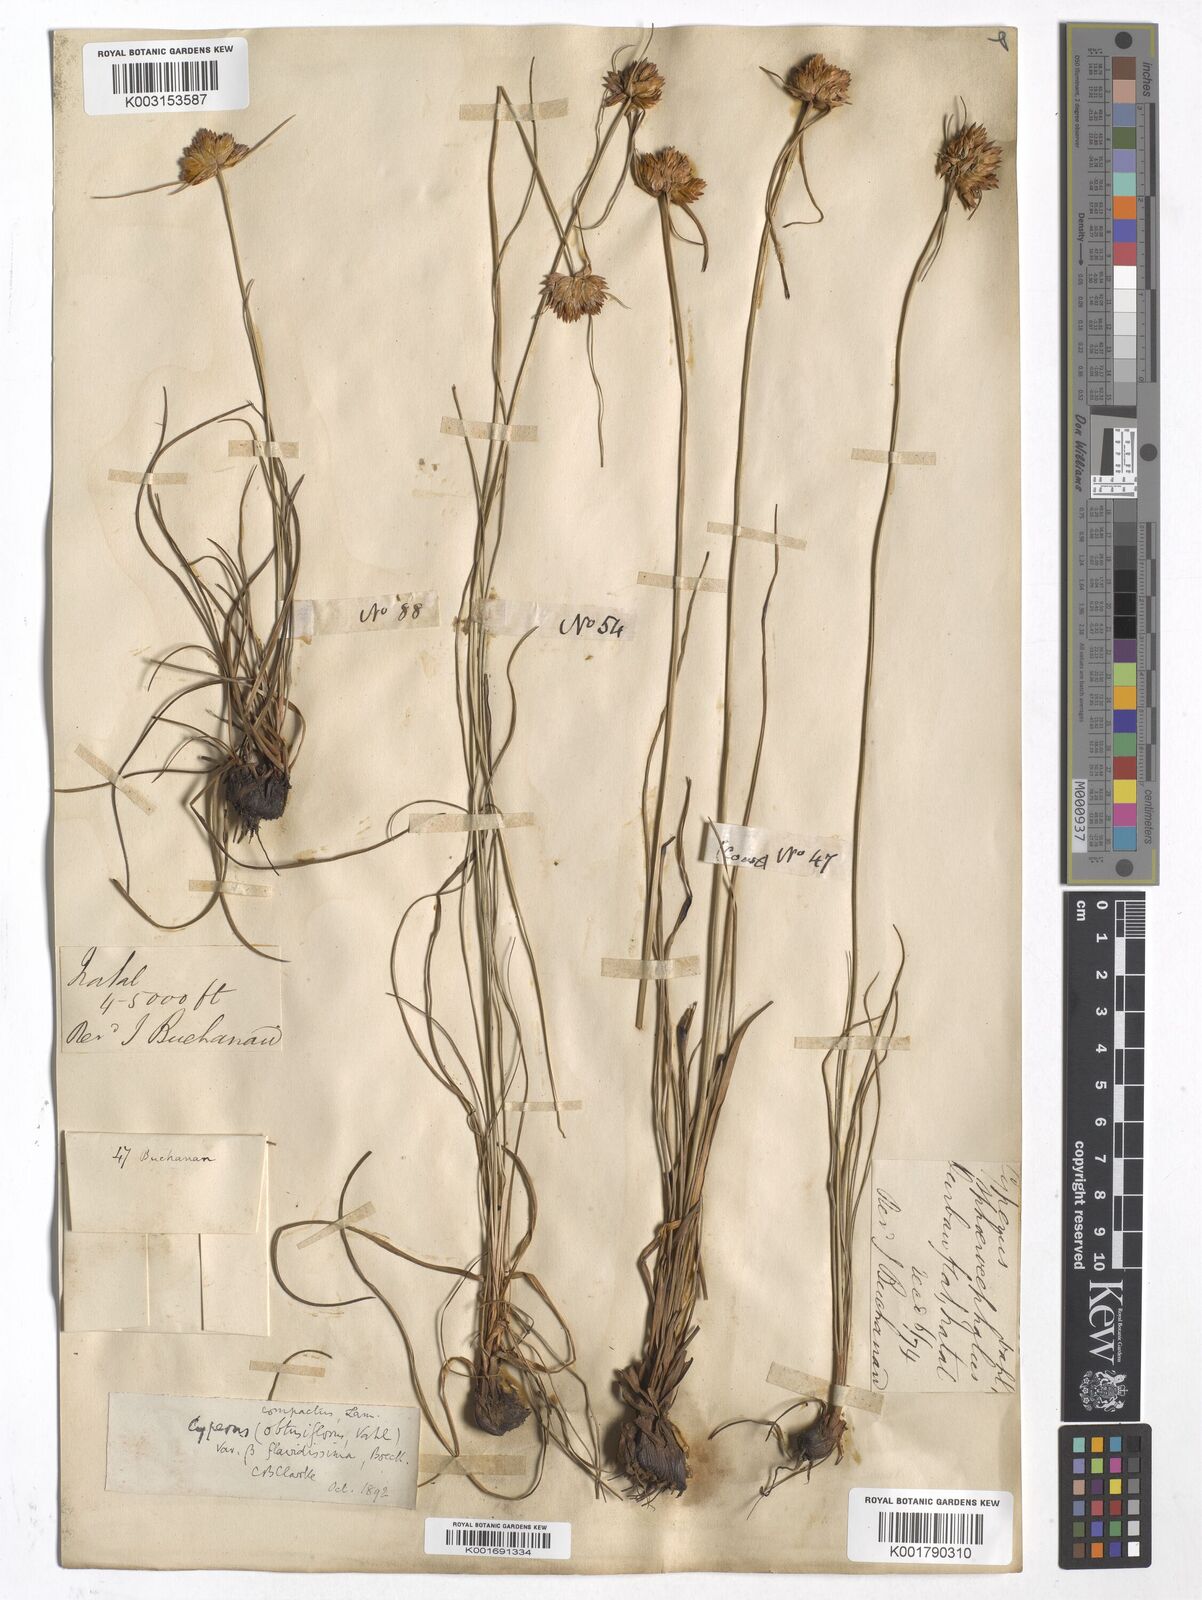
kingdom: Plantae
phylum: Tracheophyta
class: Liliopsida
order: Poales
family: Cyperaceae
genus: Cyperus
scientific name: Cyperus niveus
